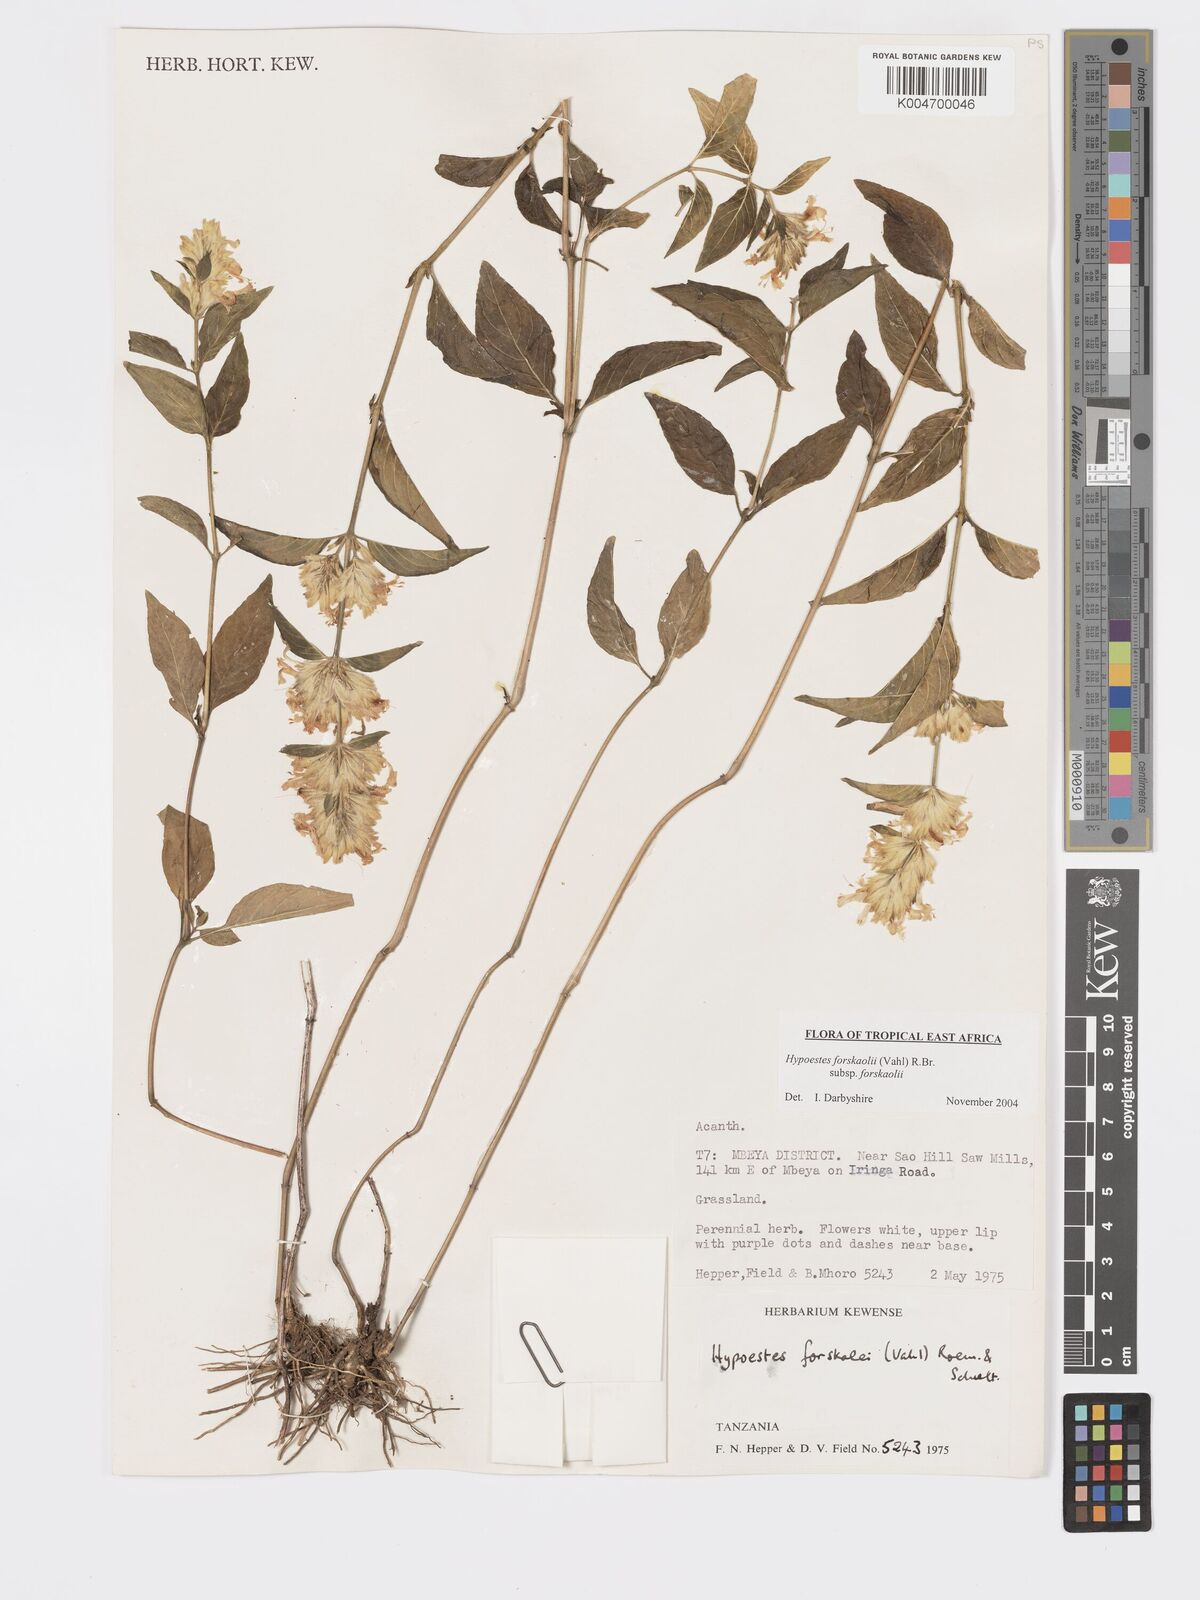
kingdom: Plantae
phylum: Tracheophyta
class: Magnoliopsida
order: Lamiales
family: Acanthaceae
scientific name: Acanthaceae
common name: Acanthaceae
